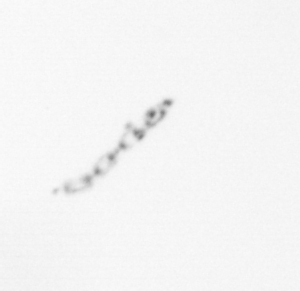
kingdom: Chromista
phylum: Ochrophyta
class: Bacillariophyceae
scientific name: Bacillariophyceae
